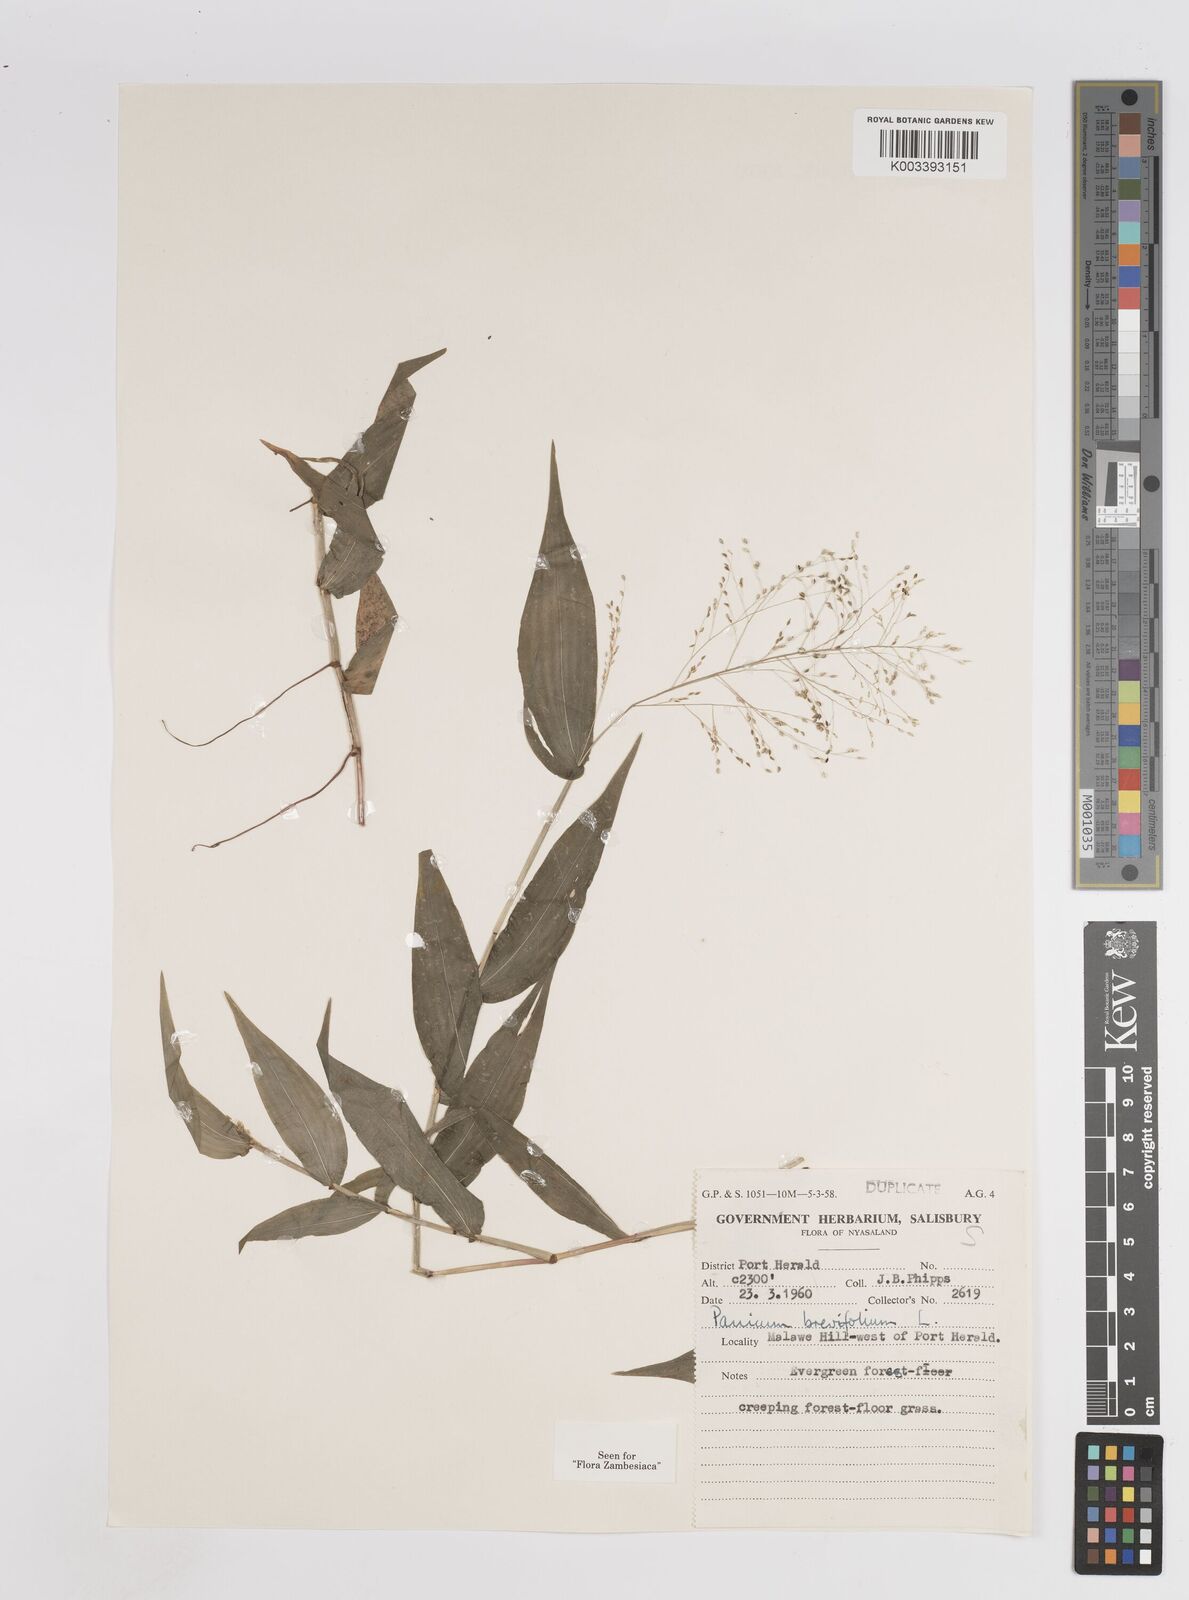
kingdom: Plantae
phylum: Tracheophyta
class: Liliopsida
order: Poales
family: Poaceae
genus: Panicum
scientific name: Panicum brevifolium
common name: Shortleaf panic grass
